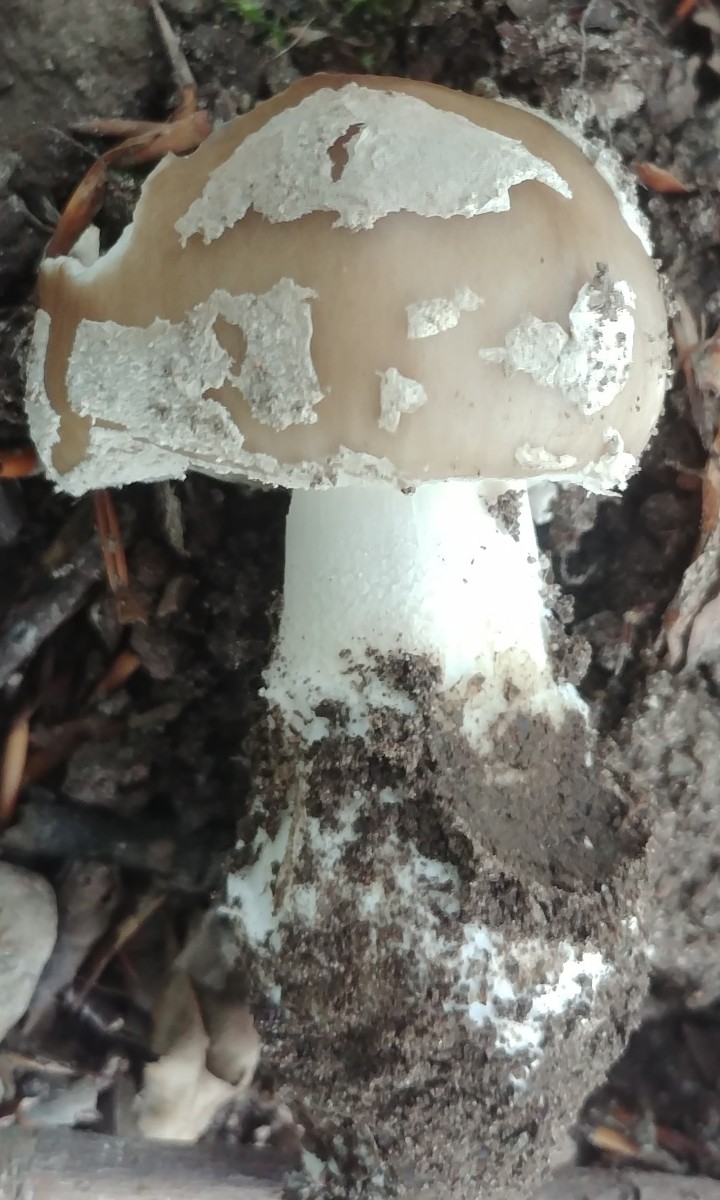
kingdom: Fungi
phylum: Basidiomycota
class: Agaricomycetes
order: Agaricales
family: Amanitaceae
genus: Amanita
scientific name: Amanita
